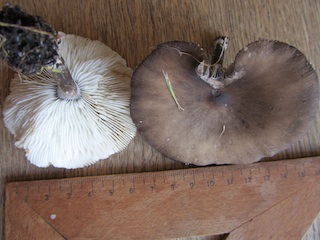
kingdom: Fungi
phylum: Basidiomycota
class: Agaricomycetes
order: Agaricales
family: Tricholomataceae
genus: Melanoleuca
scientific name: Melanoleuca exscissa
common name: gusten munkehat
